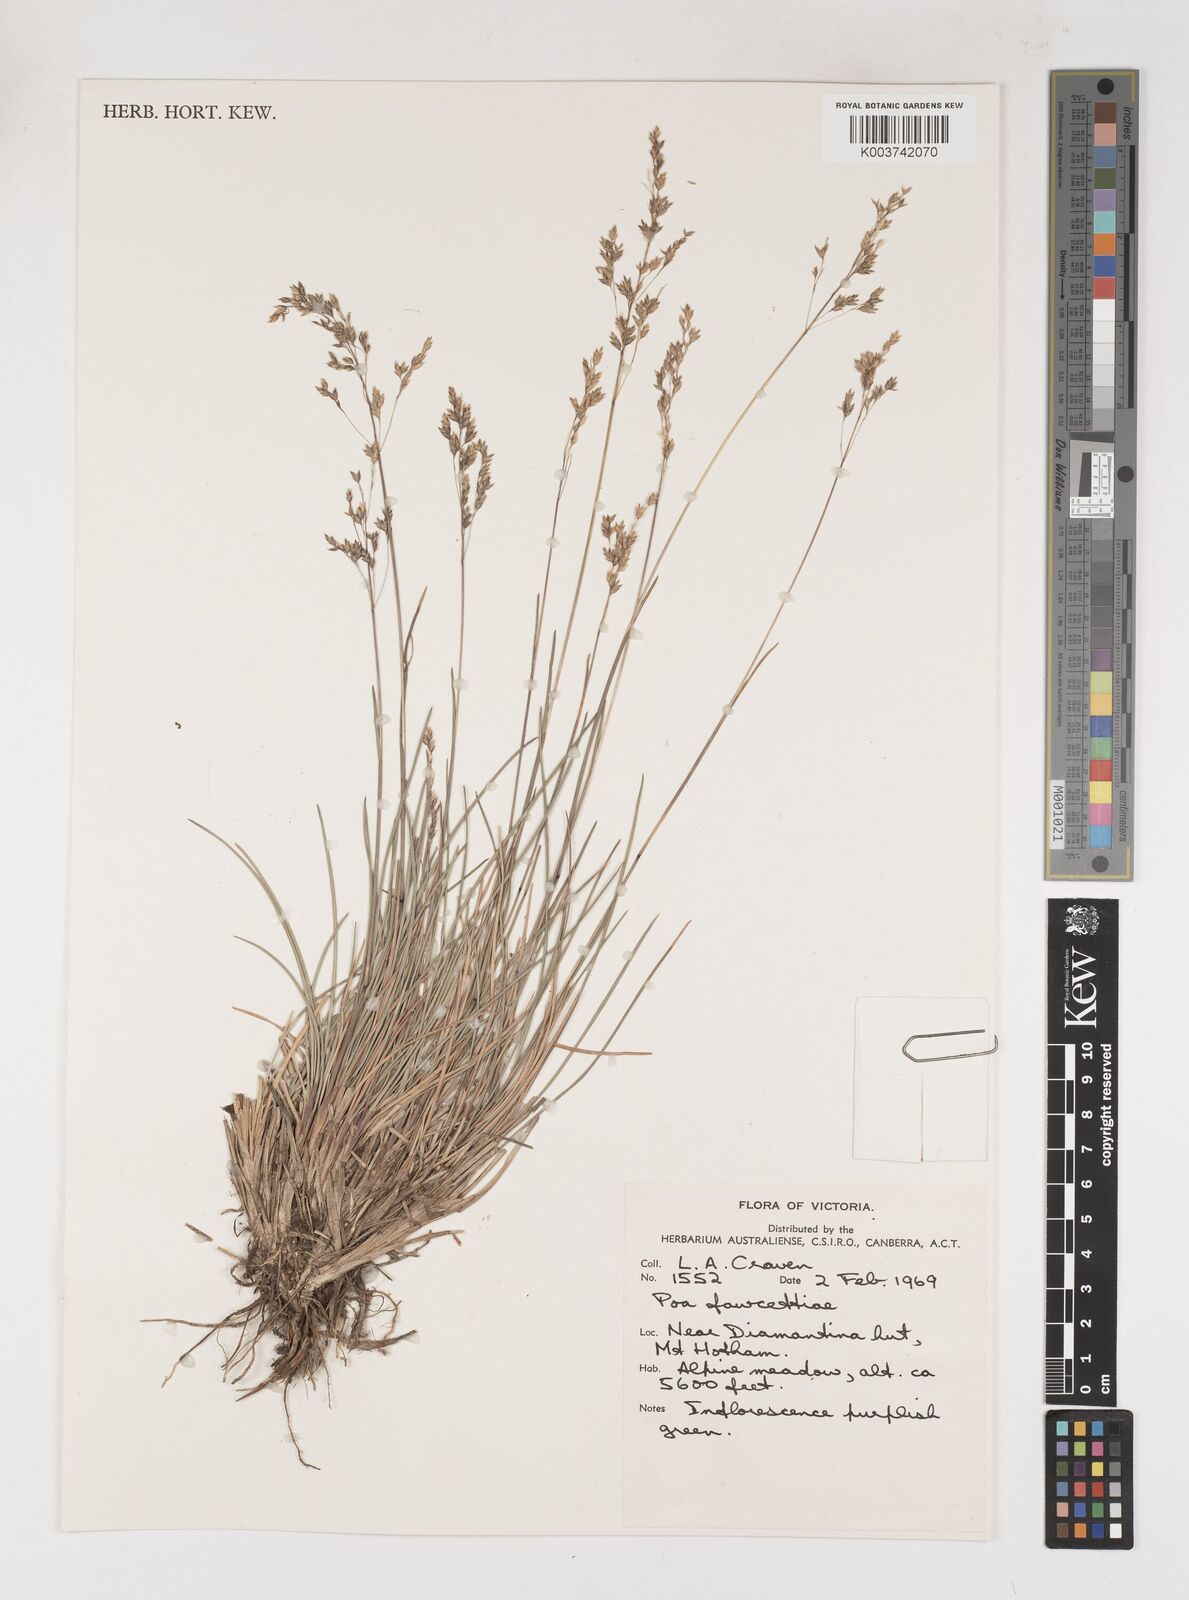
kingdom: Plantae
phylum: Tracheophyta
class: Liliopsida
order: Poales
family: Poaceae
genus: Poa
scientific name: Poa fawcettiae
